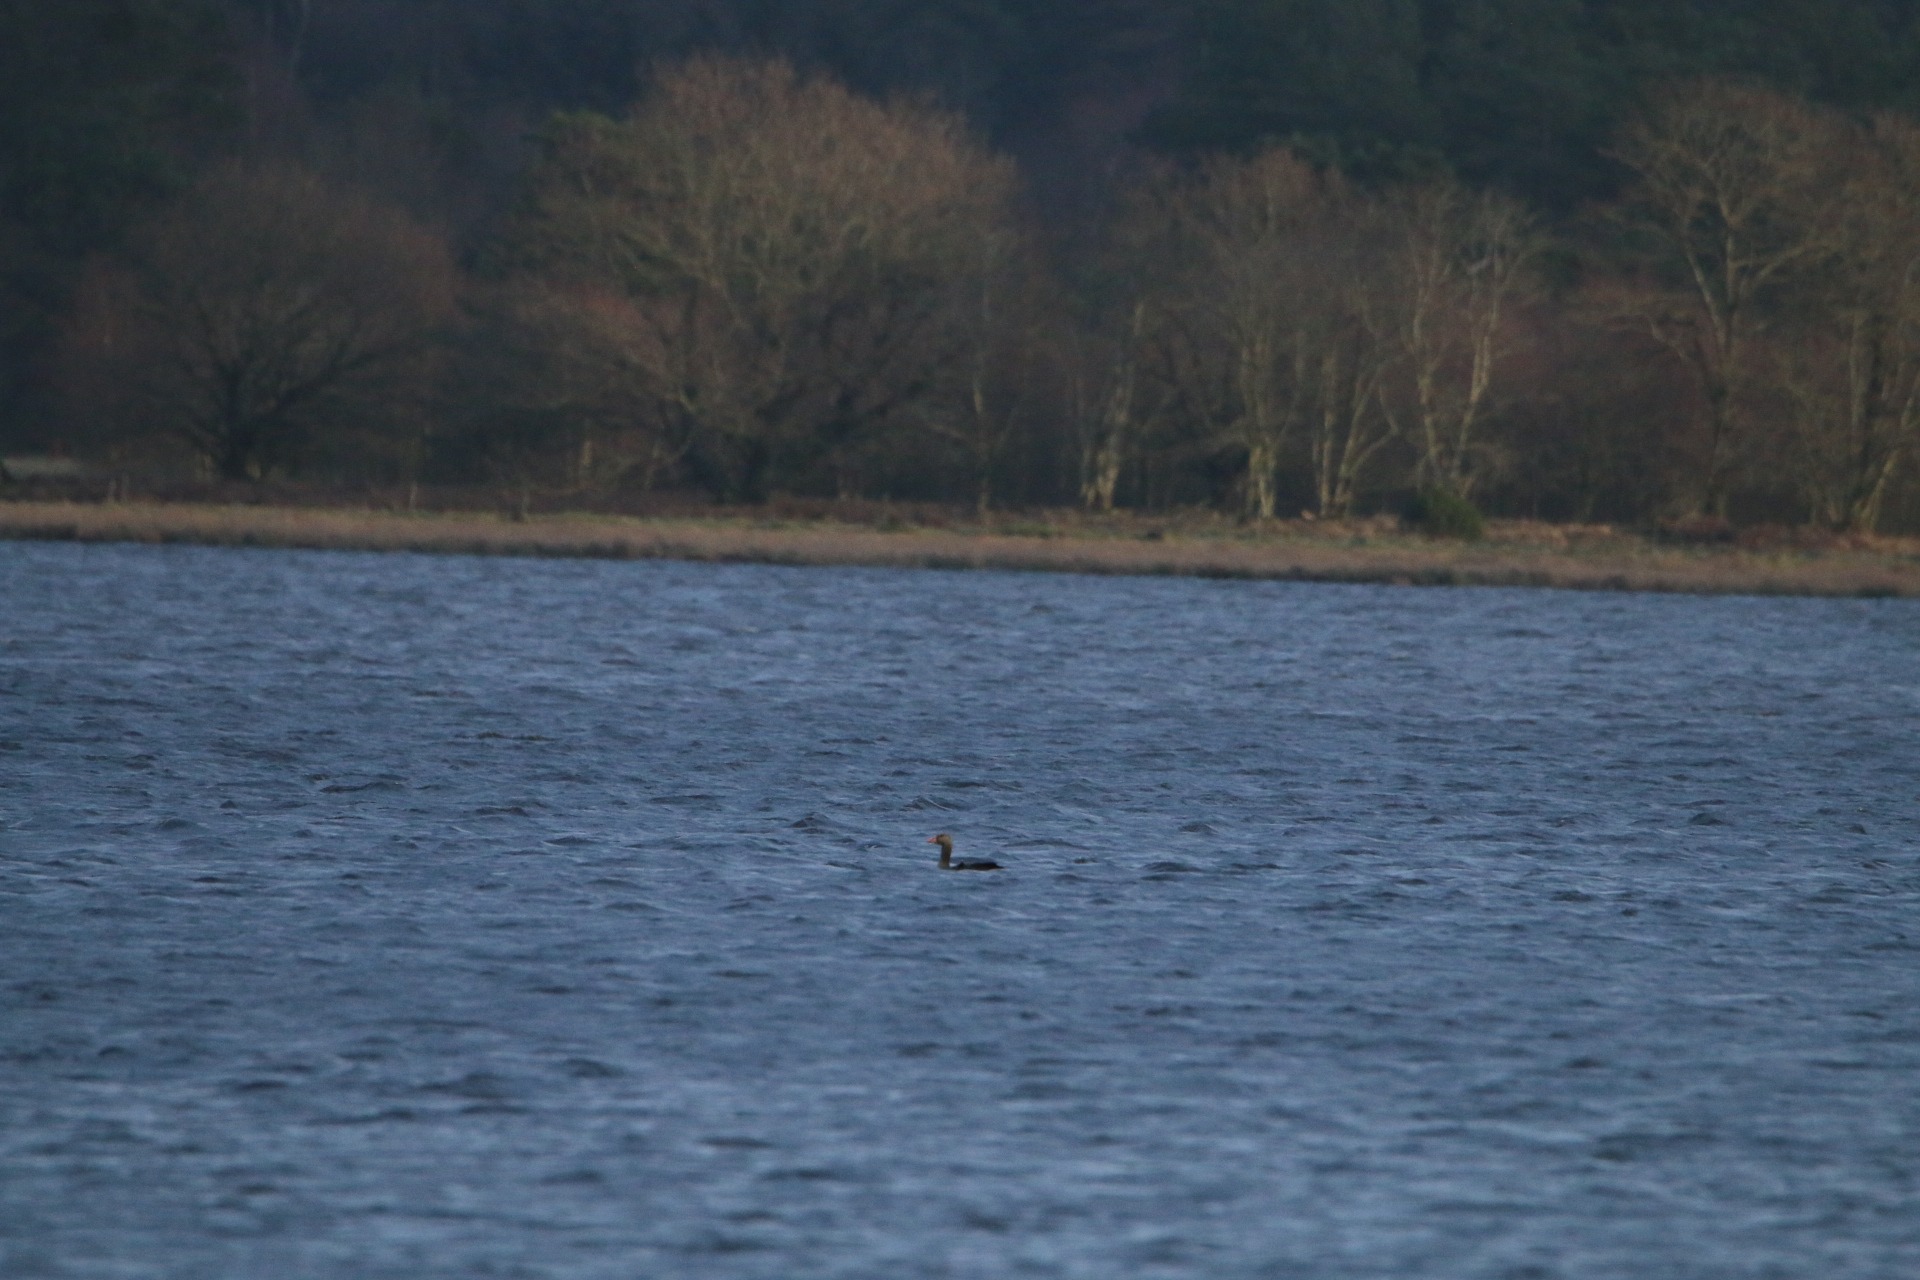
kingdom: Animalia
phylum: Chordata
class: Aves
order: Anseriformes
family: Anatidae
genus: Anser
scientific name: Anser anser
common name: Grågås
